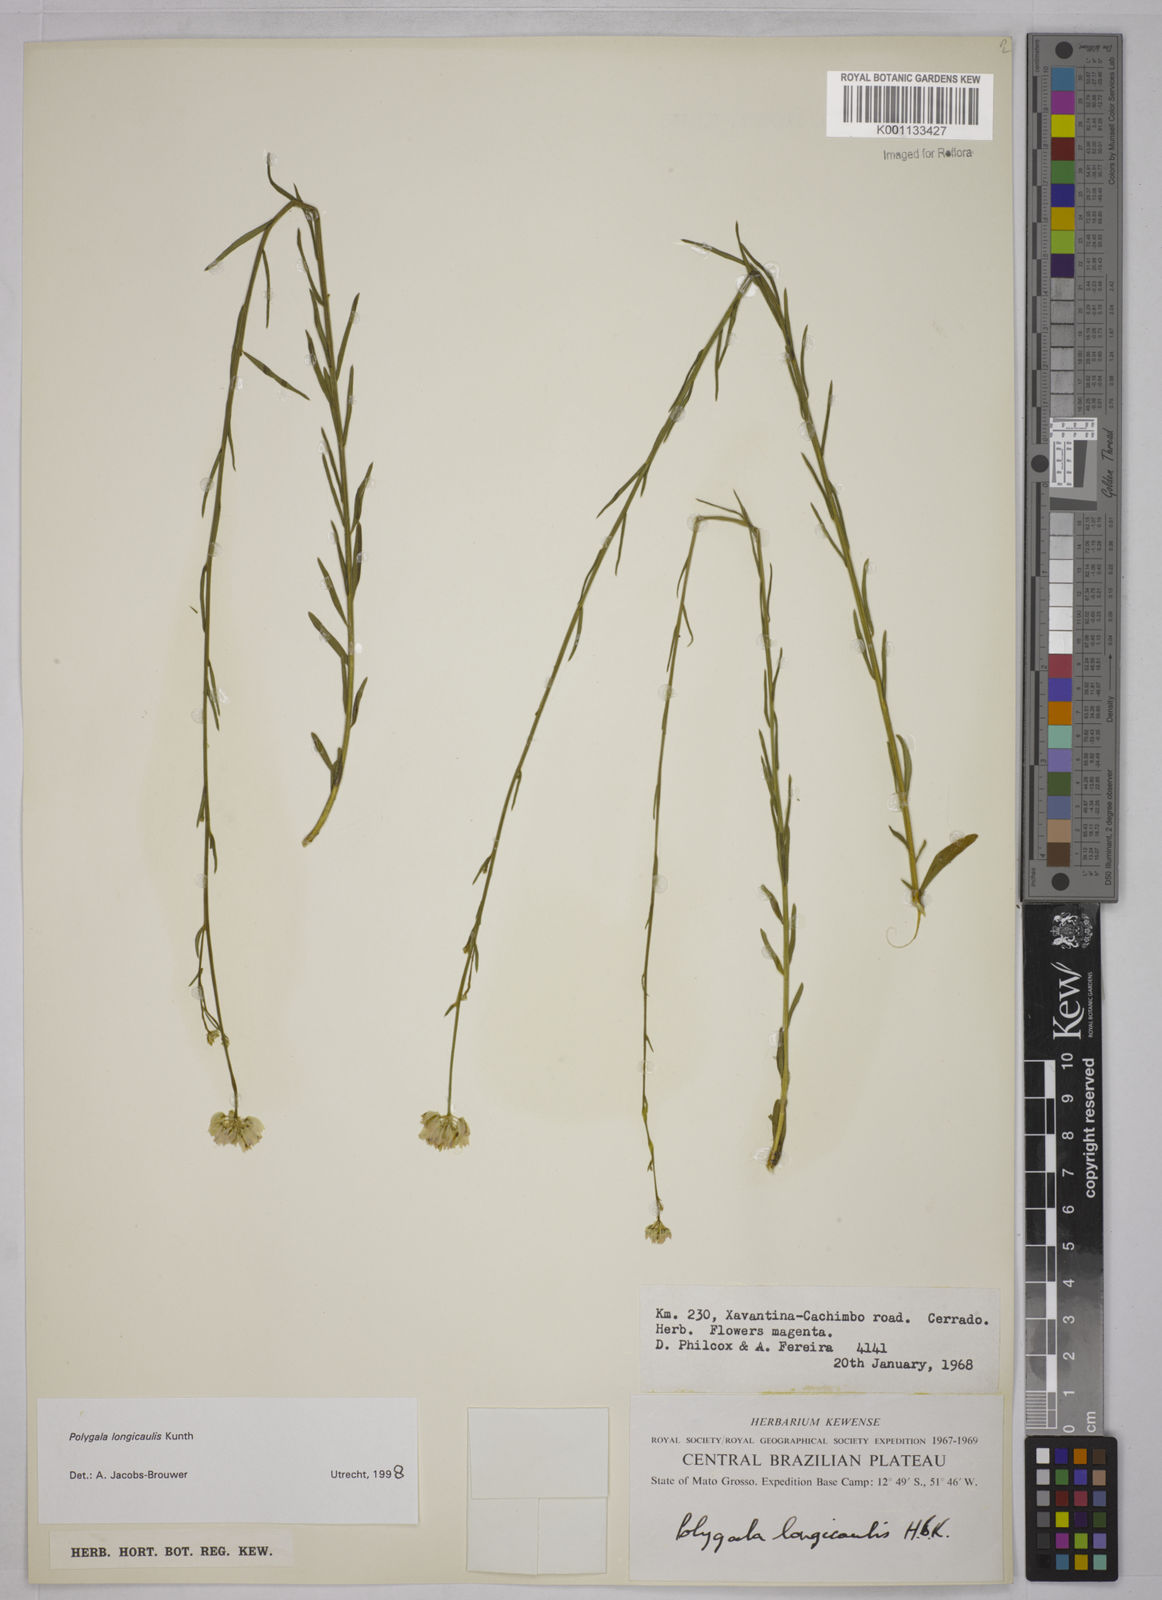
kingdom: Plantae
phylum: Tracheophyta
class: Magnoliopsida
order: Fabales
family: Polygalaceae
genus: Polygala
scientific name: Polygala longicaulis
